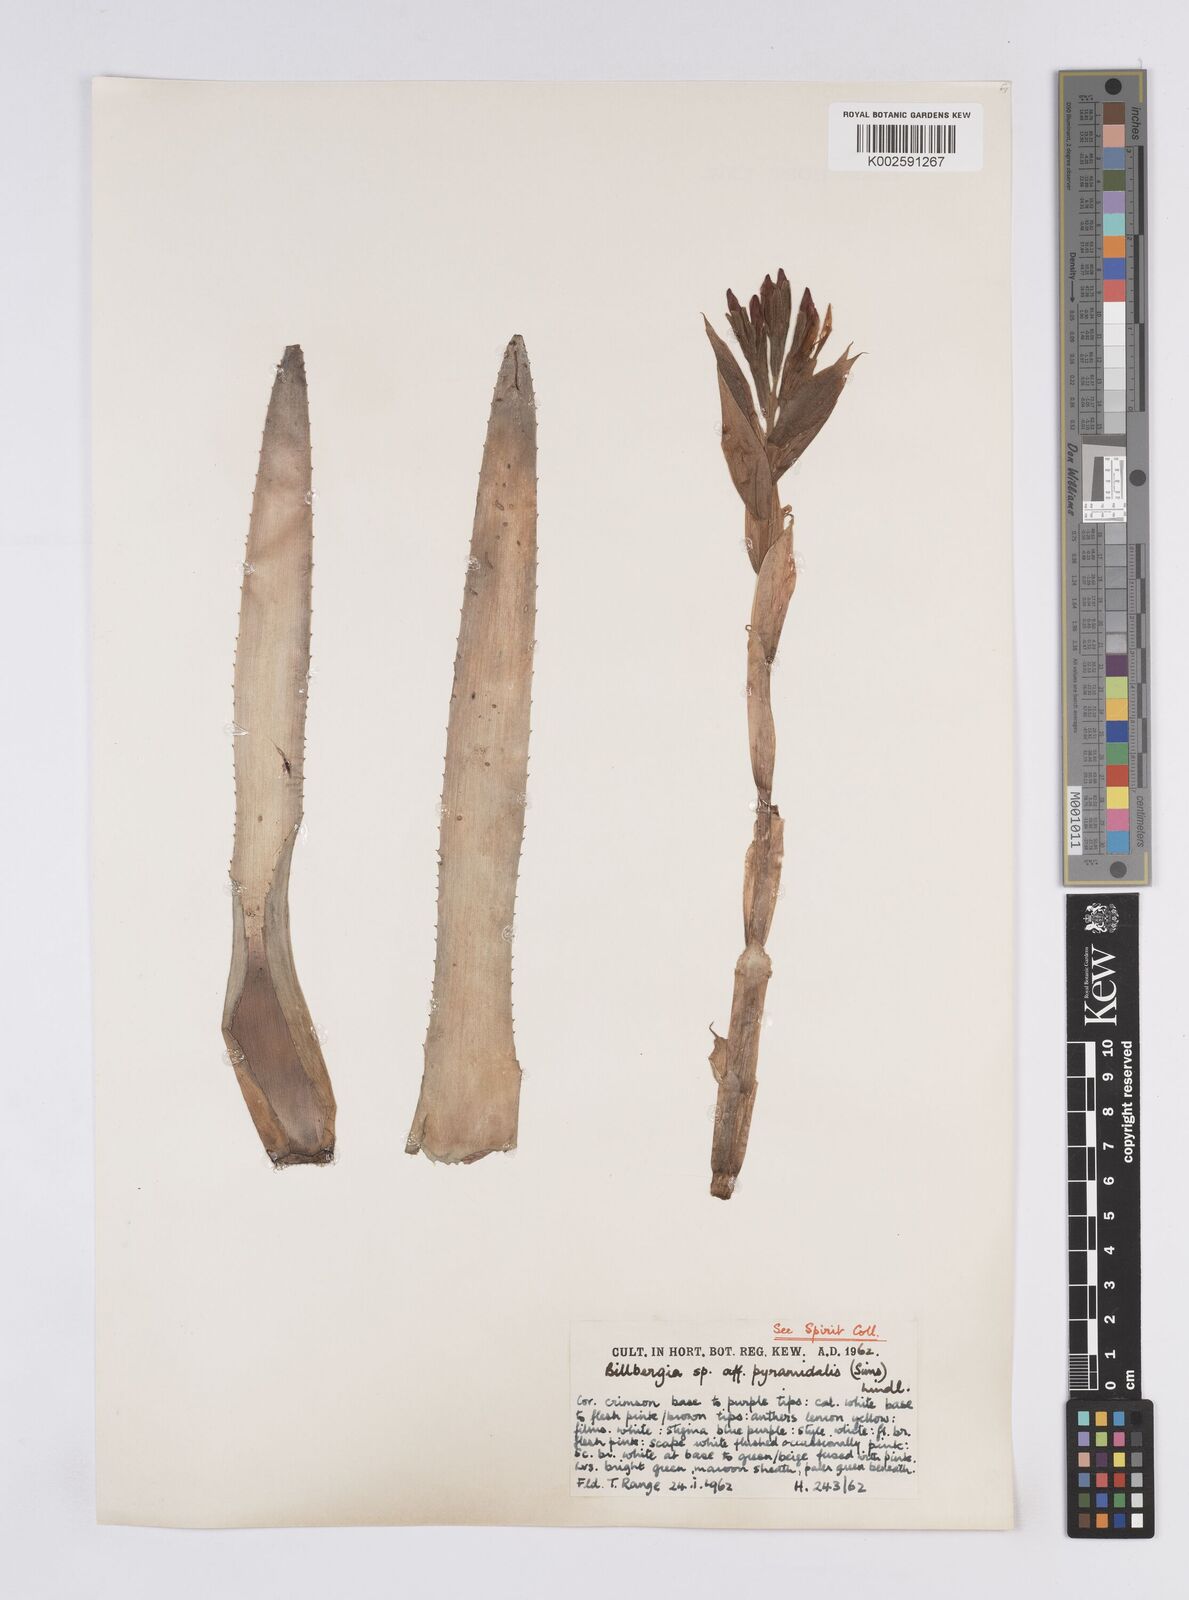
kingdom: Plantae
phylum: Tracheophyta
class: Liliopsida
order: Poales
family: Bromeliaceae
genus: Billbergia
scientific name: Billbergia pyramidalis
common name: Foolproofplant
